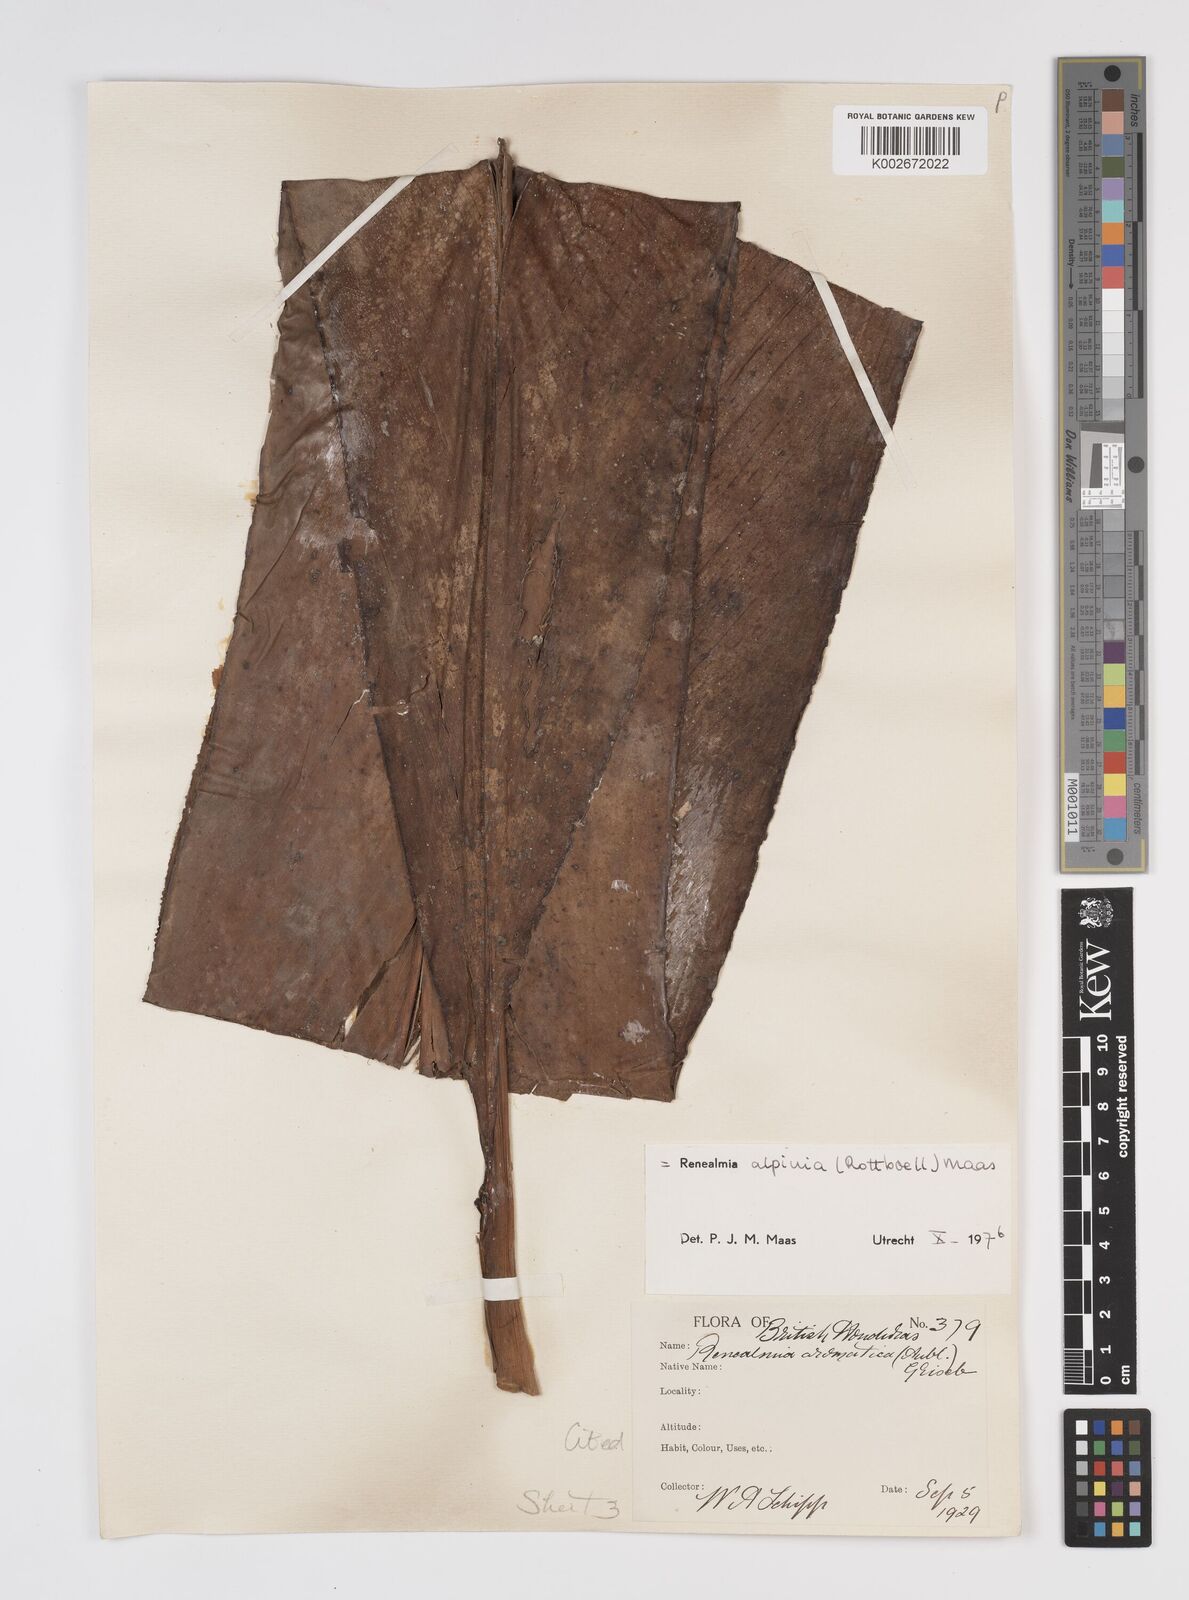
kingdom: Plantae
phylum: Tracheophyta
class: Liliopsida
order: Zingiberales
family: Zingiberaceae
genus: Renealmia
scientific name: Renealmia alpinia
